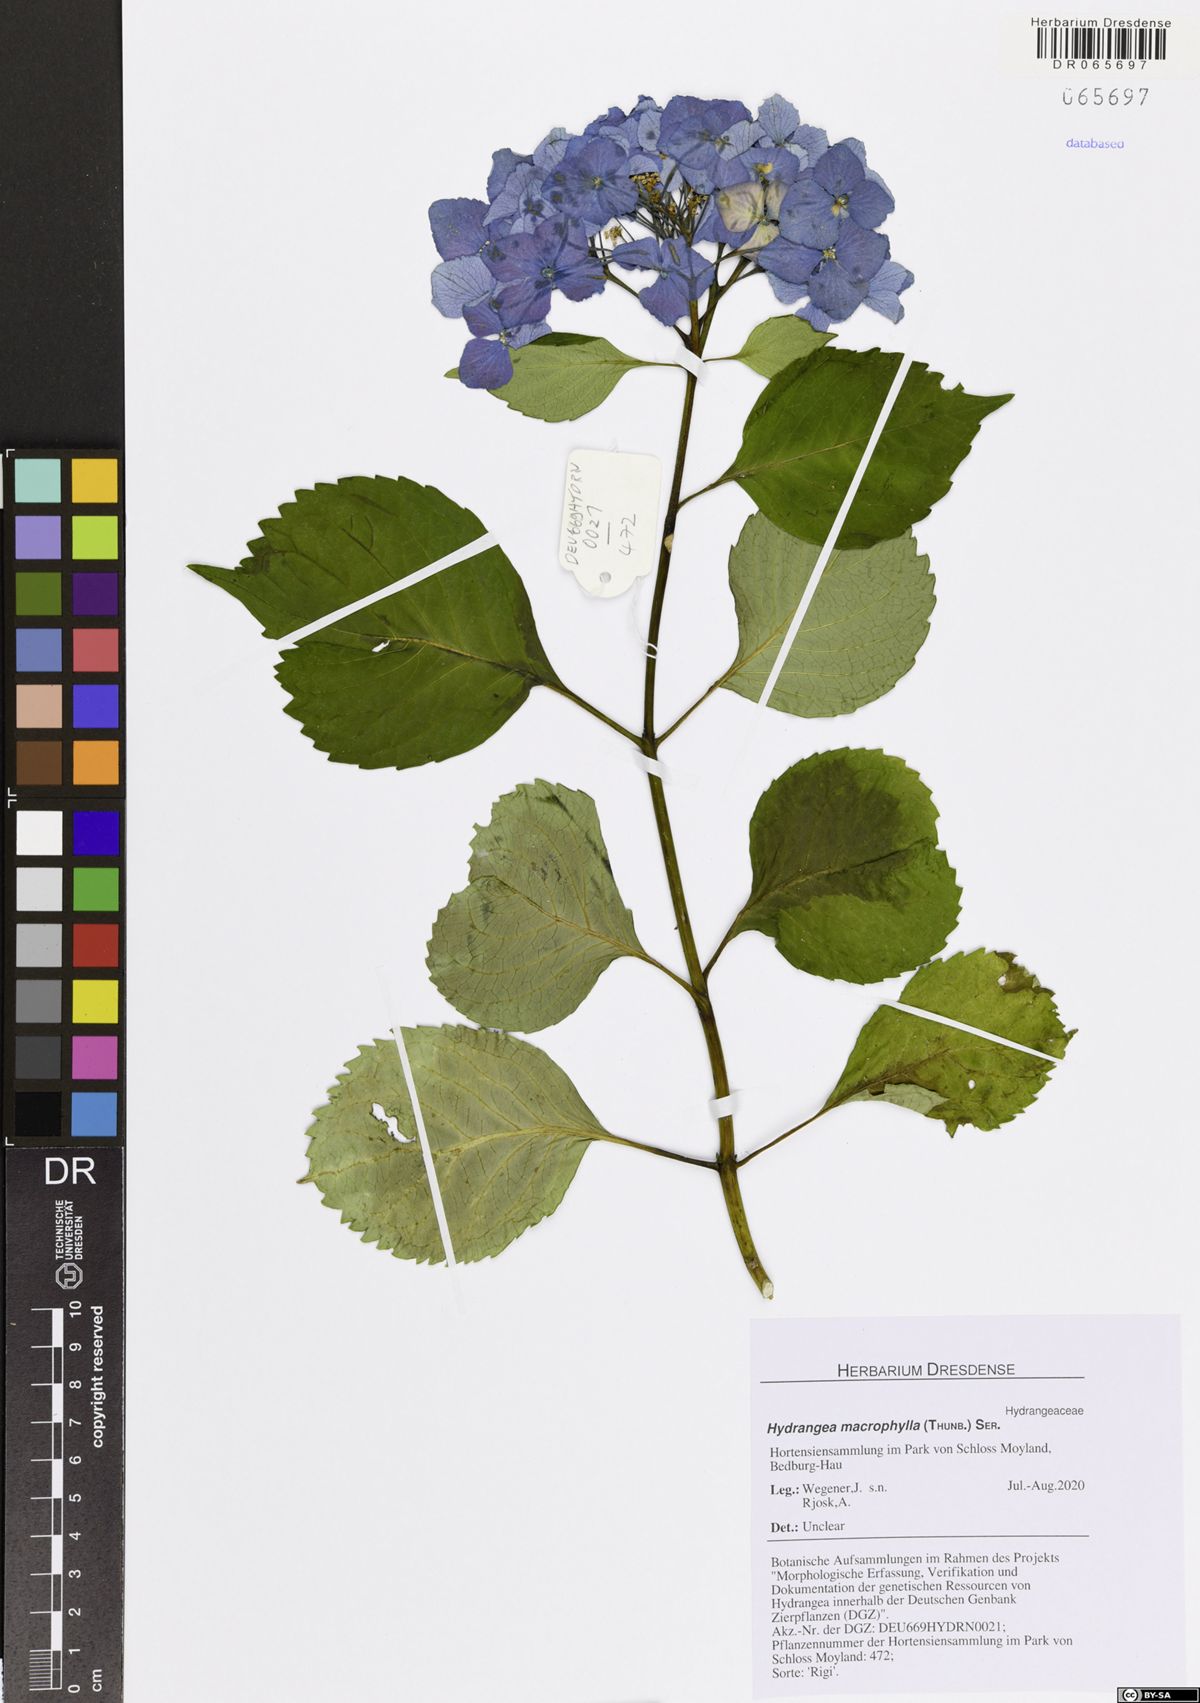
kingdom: Plantae
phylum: Tracheophyta
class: Magnoliopsida
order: Cornales
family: Hydrangeaceae
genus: Hydrangea
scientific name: Hydrangea macrophylla
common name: Hydrangea
